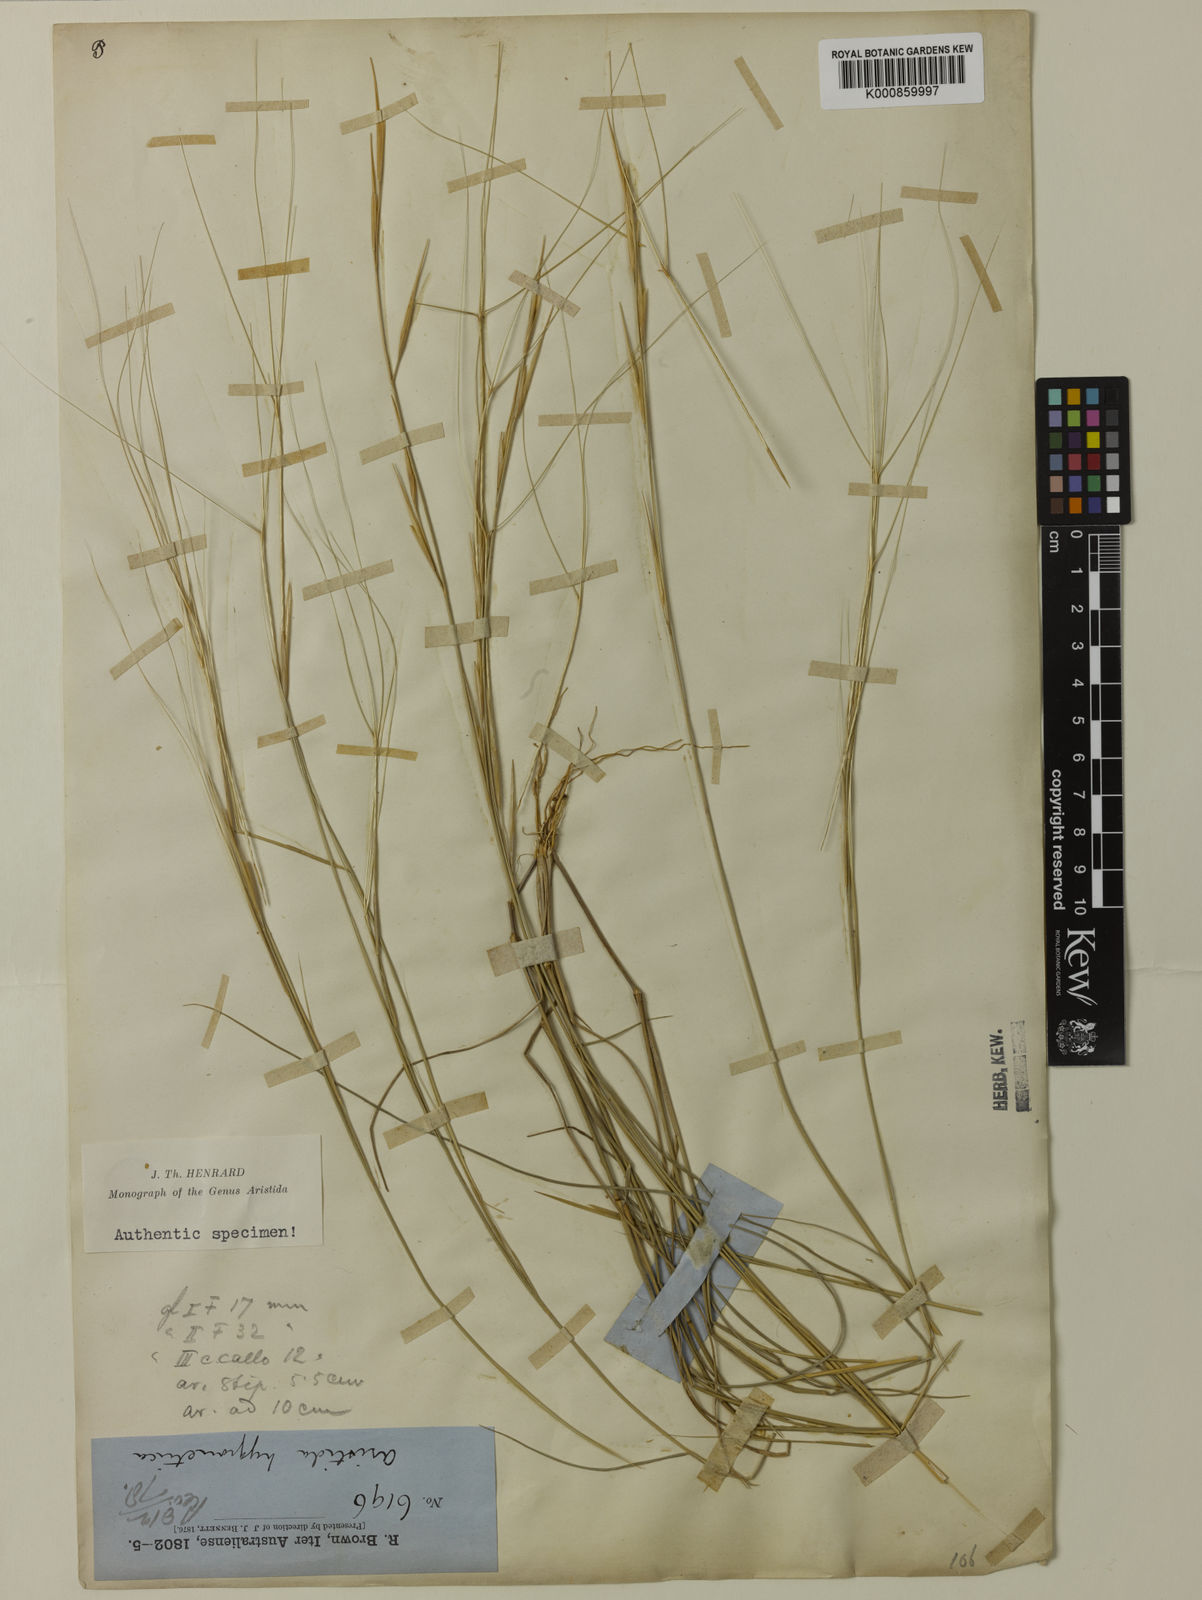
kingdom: Plantae
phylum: Tracheophyta
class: Liliopsida
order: Poales
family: Poaceae
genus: Aristida
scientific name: Aristida hygrometrica
